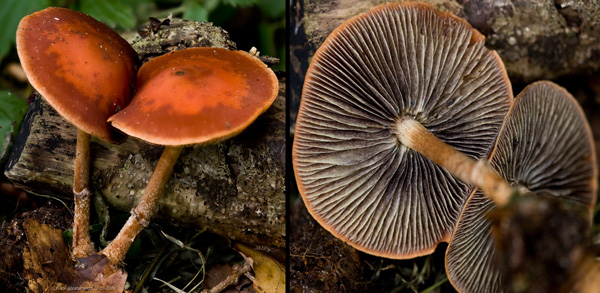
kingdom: Fungi
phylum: Basidiomycota
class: Agaricomycetes
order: Agaricales
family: Strophariaceae
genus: Leratiomyces
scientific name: Leratiomyces squamosus
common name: skællet bredblad
